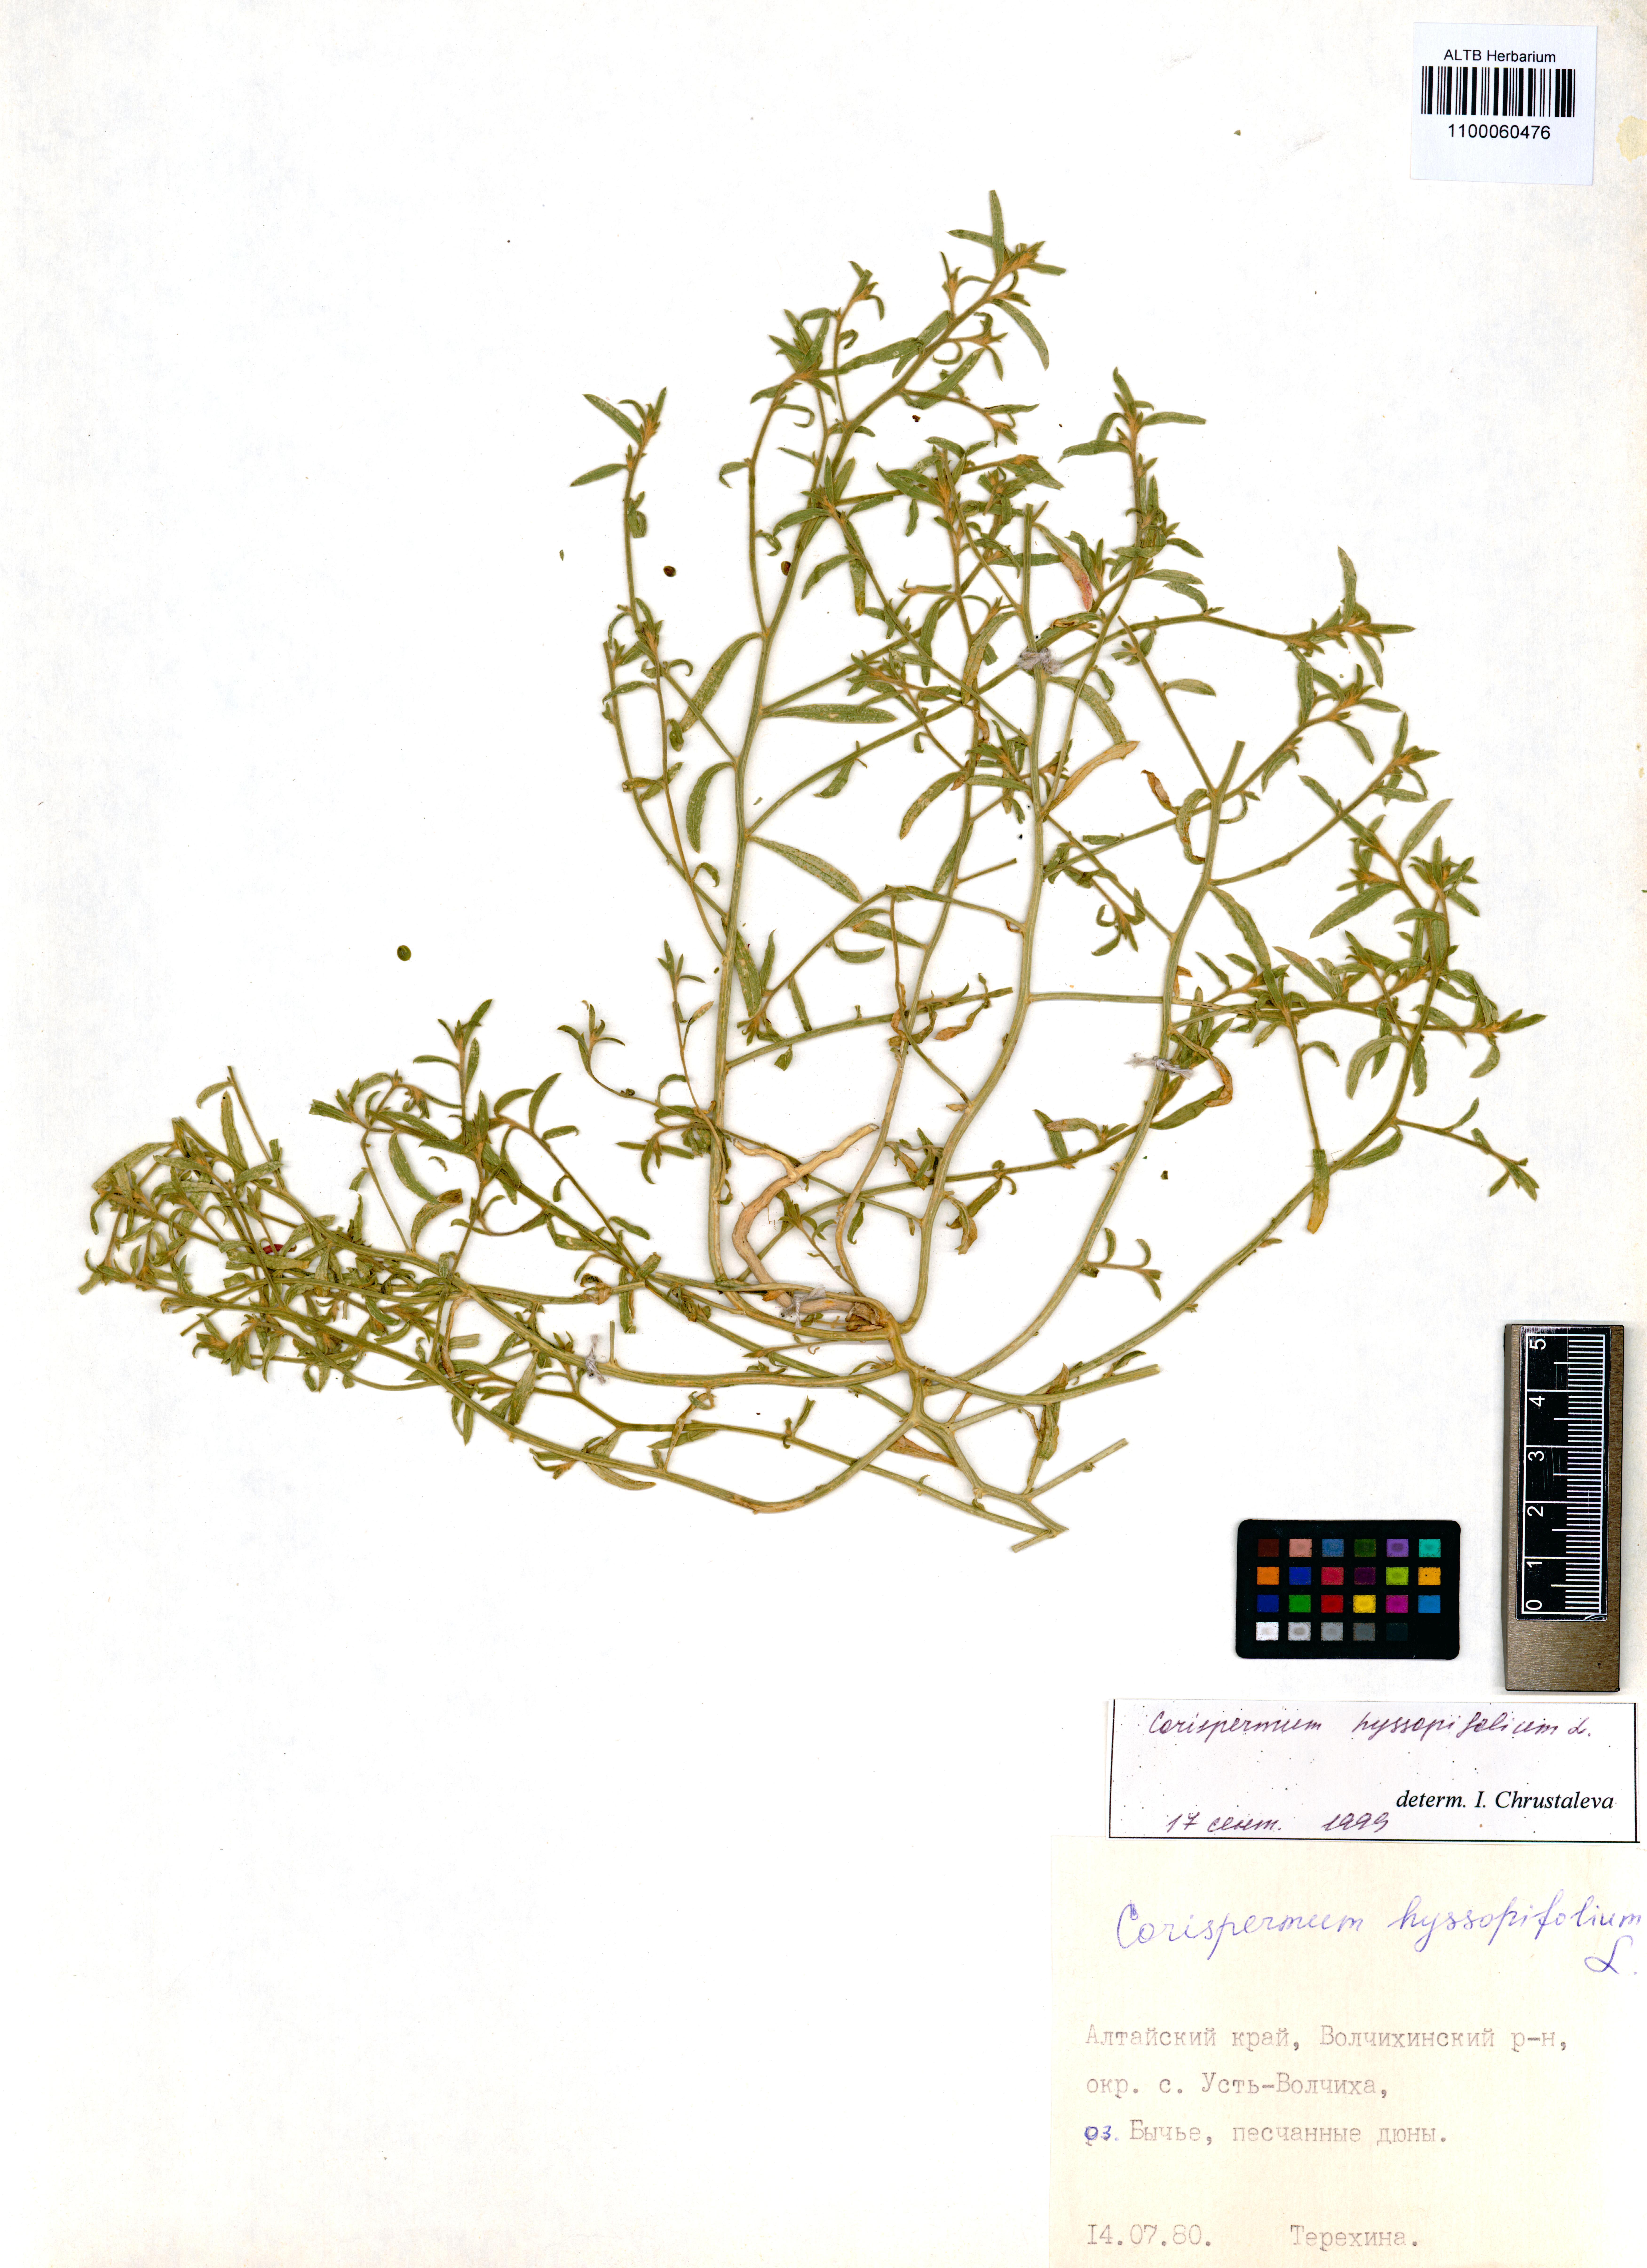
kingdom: Plantae
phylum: Tracheophyta
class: Magnoliopsida
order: Caryophyllales
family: Amaranthaceae
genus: Corispermum
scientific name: Corispermum hyssopifolium
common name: Bugseed
